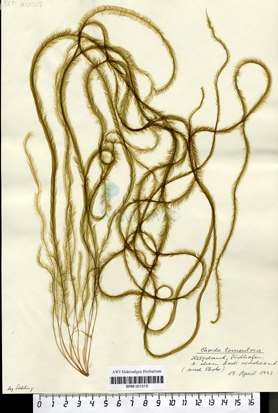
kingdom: Chromista
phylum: Ochrophyta
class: Phaeophyceae
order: Tilopteridales
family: Halosiphonaceae
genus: Halosiphon
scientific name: Halosiphon tomentosus
